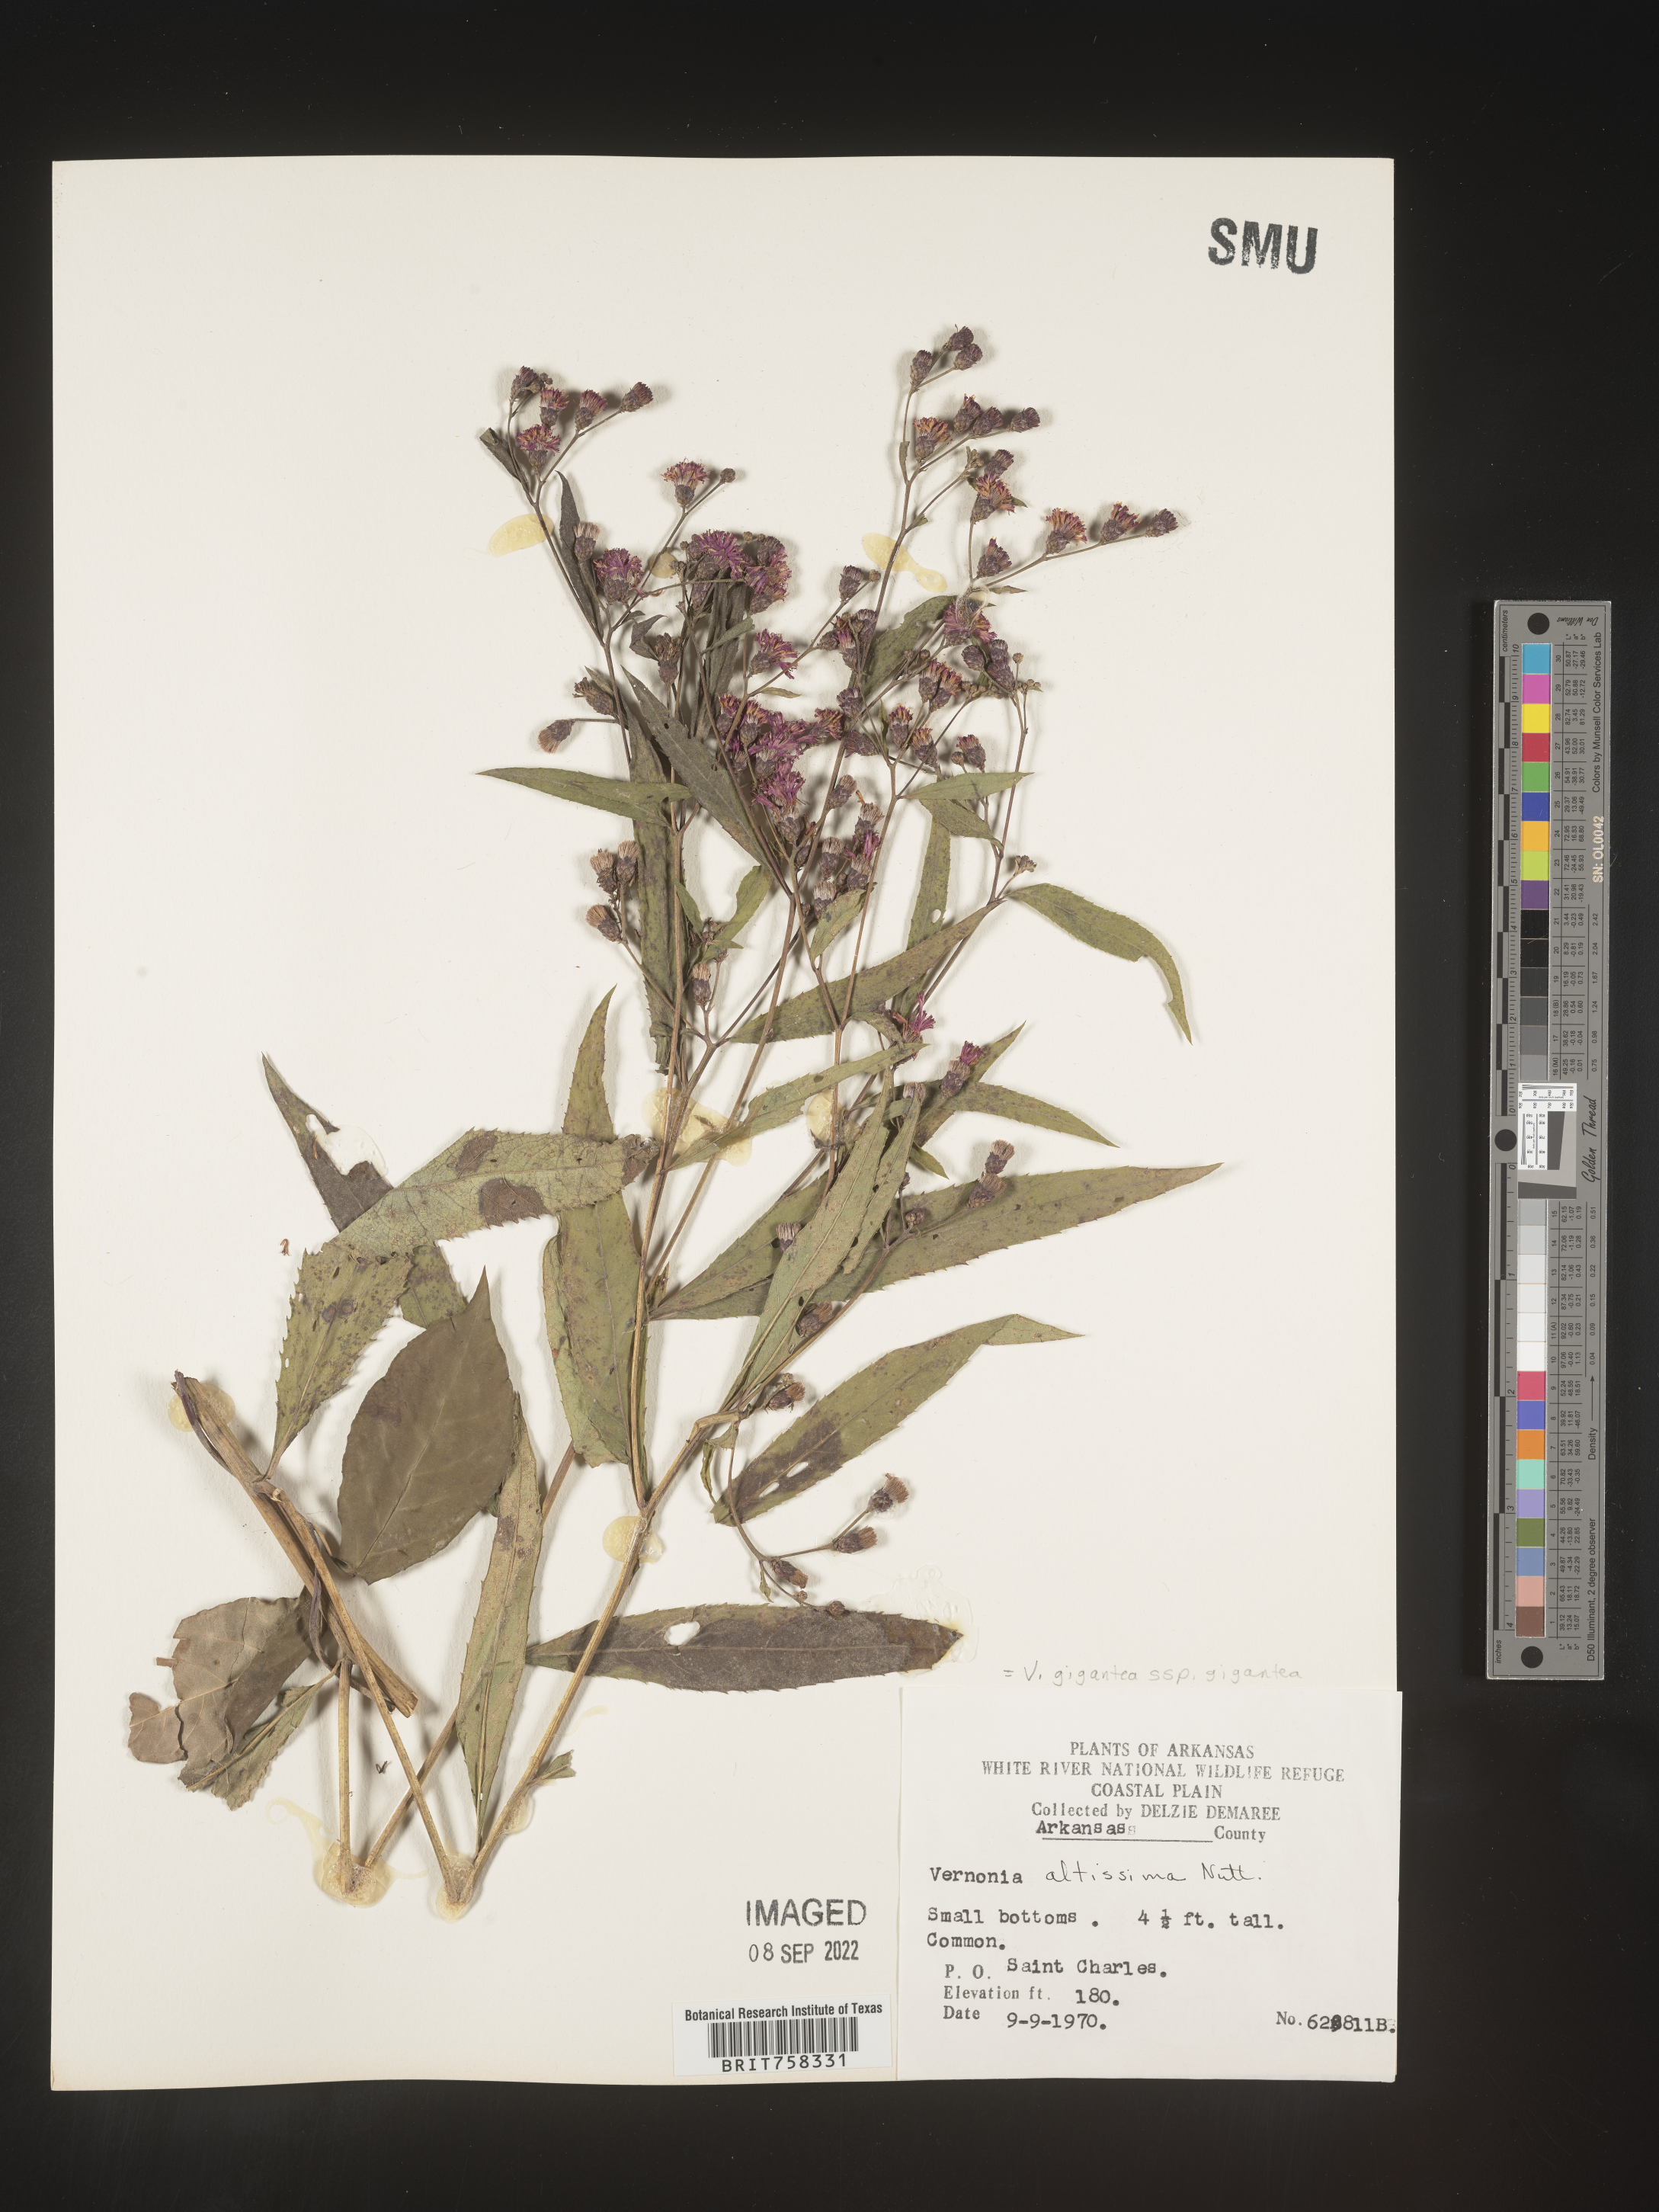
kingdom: Plantae
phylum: Tracheophyta
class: Magnoliopsida
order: Asterales
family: Asteraceae
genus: Vernonia
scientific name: Vernonia gigantea
